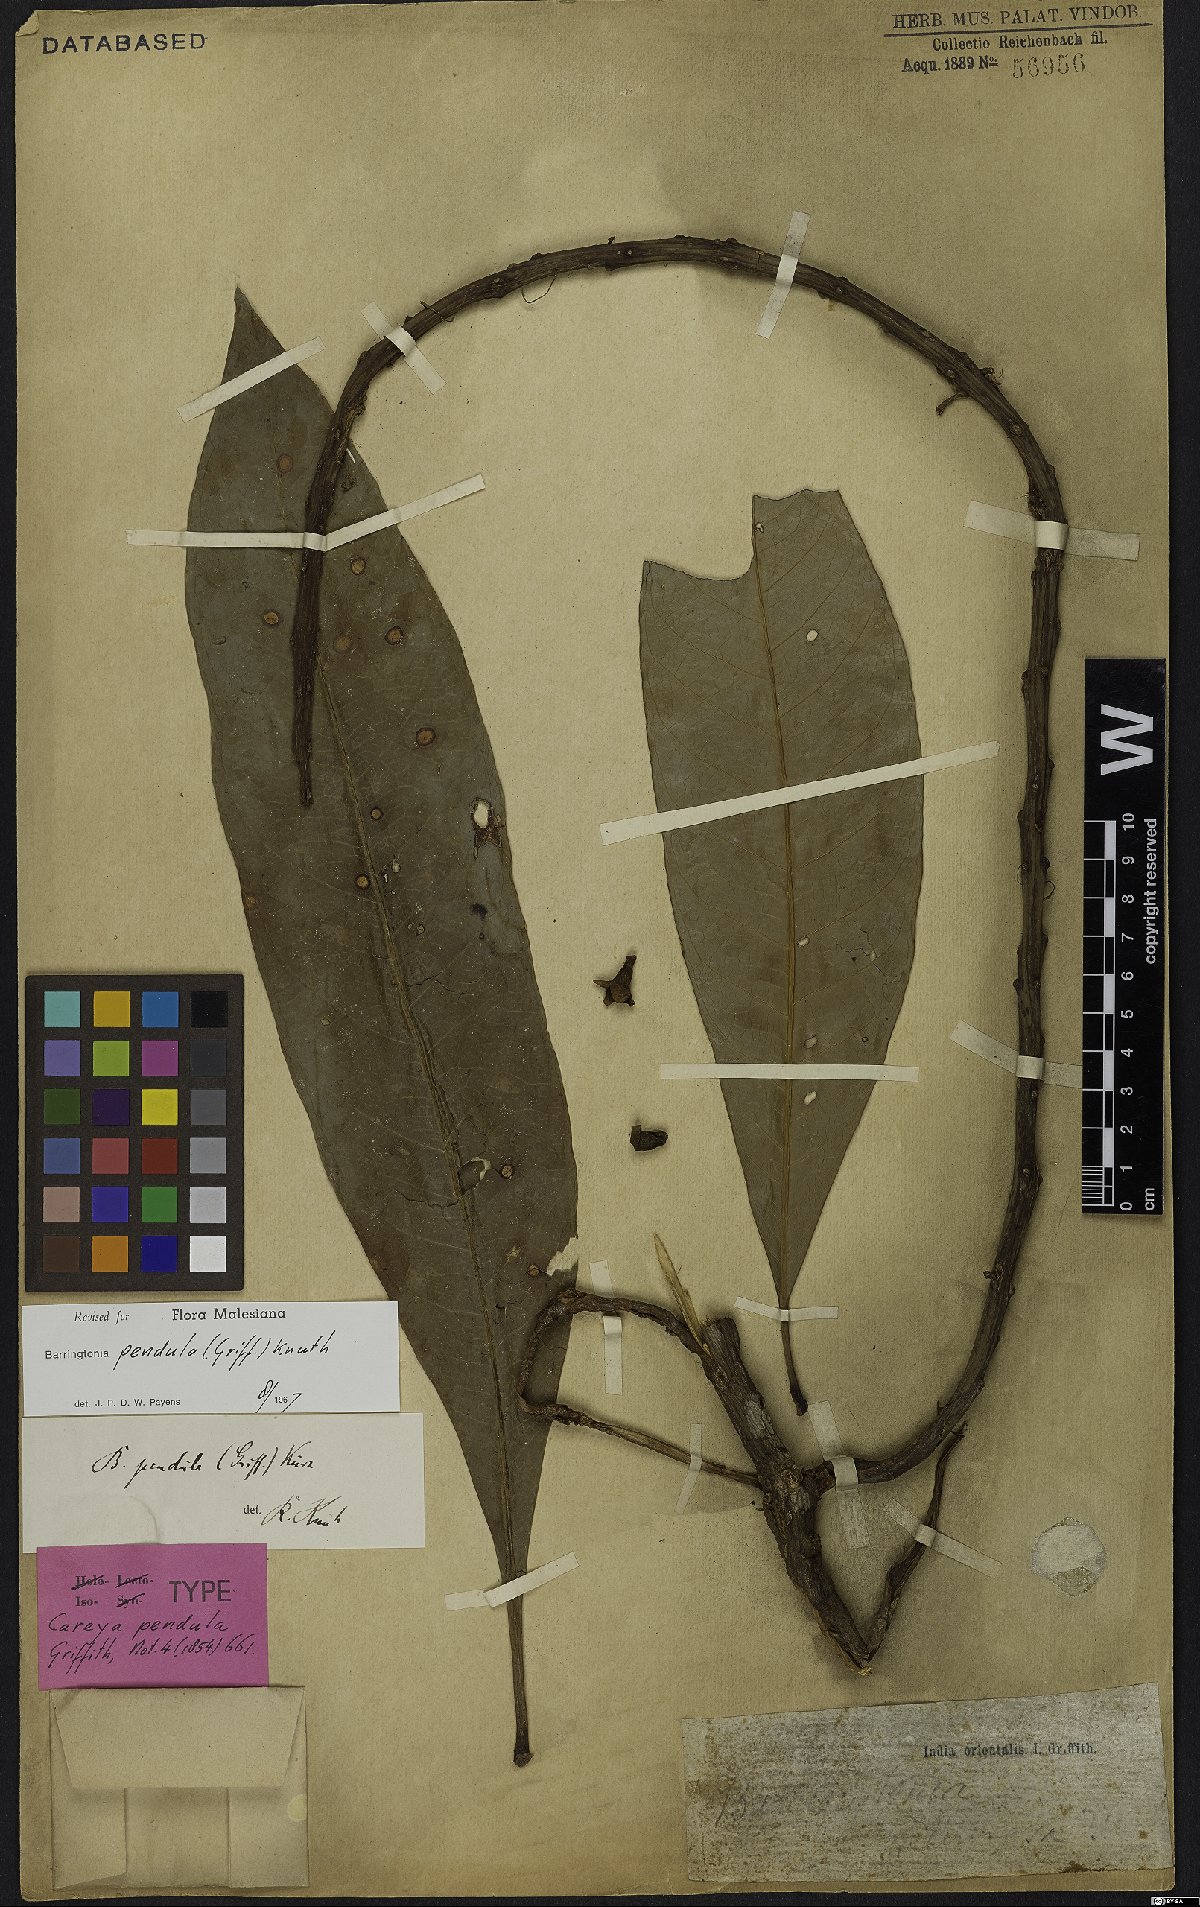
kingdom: Plantae
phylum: Tracheophyta
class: Magnoliopsida
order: Ericales
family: Lecythidaceae
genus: Barringtonia
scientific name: Barringtonia pendula
